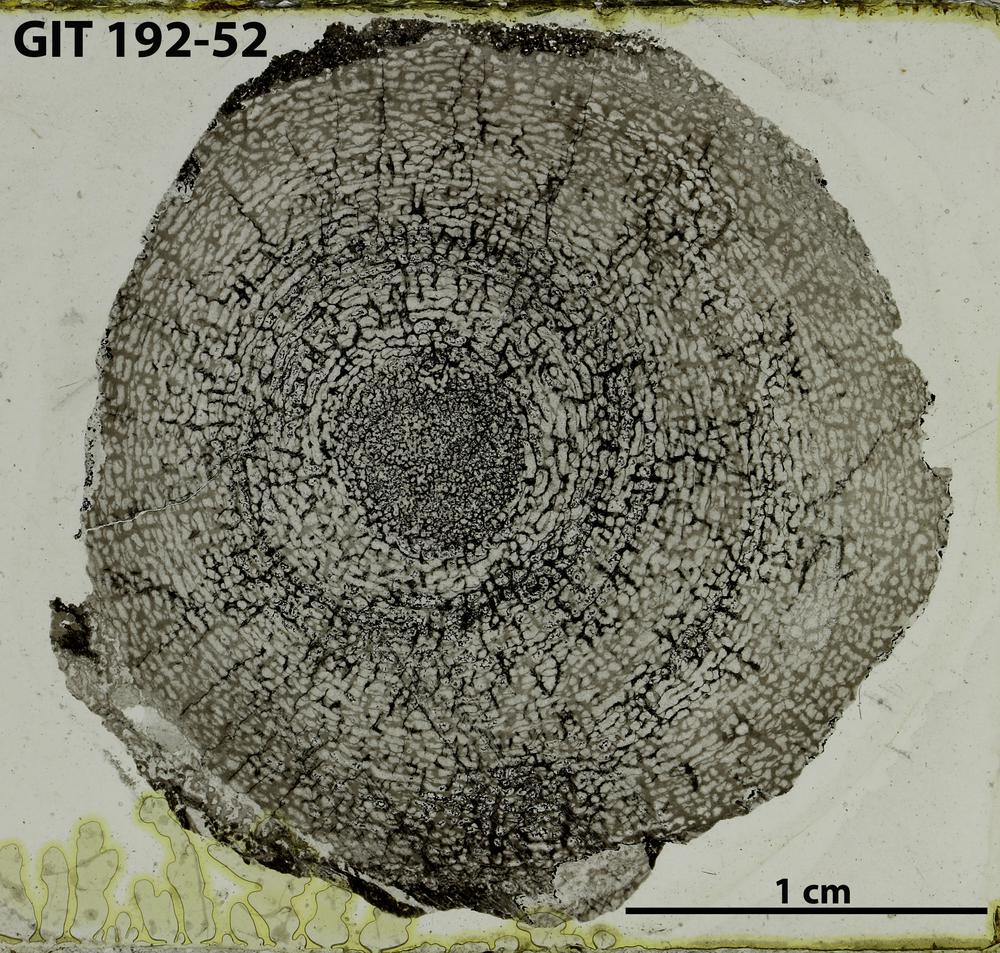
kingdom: Animalia
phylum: Porifera
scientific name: Porifera
